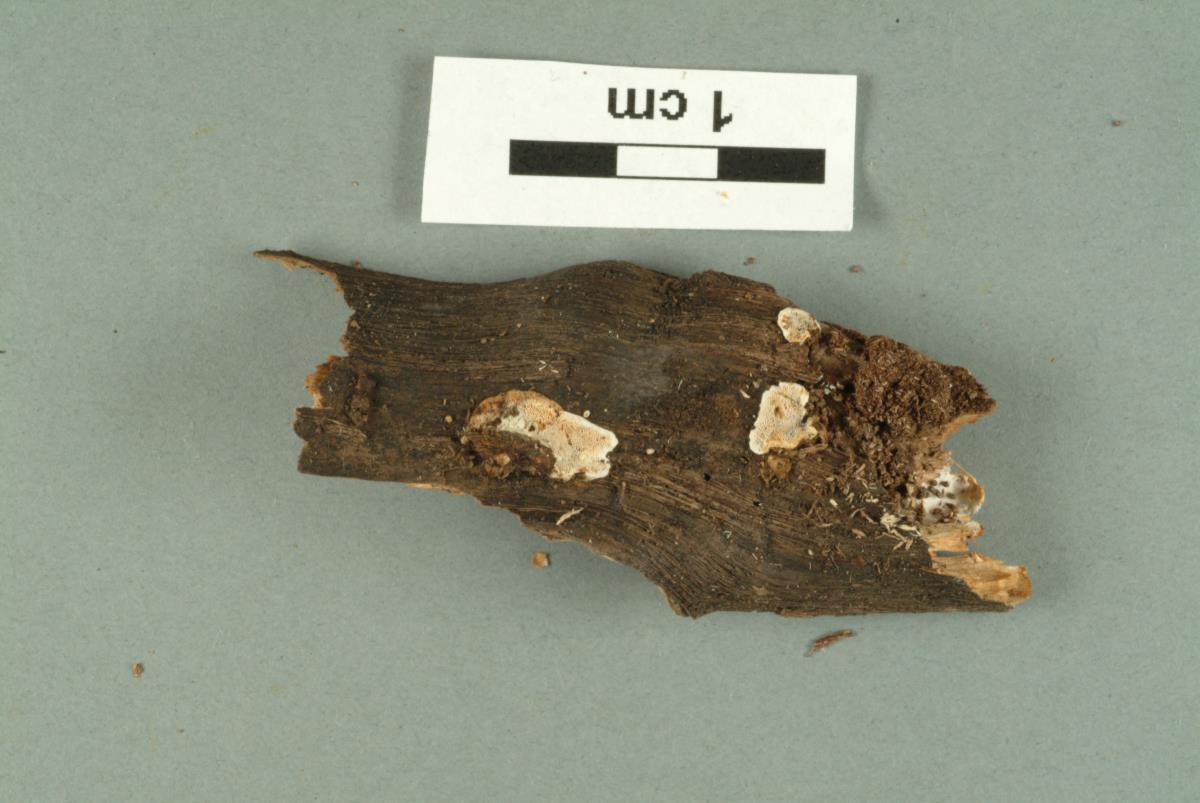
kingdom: Fungi
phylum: Basidiomycota
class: Agaricomycetes
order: Russulales
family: Stereaceae
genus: Stereum
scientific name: Stereum sanguinolentum
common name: Bleeding conifer crust
